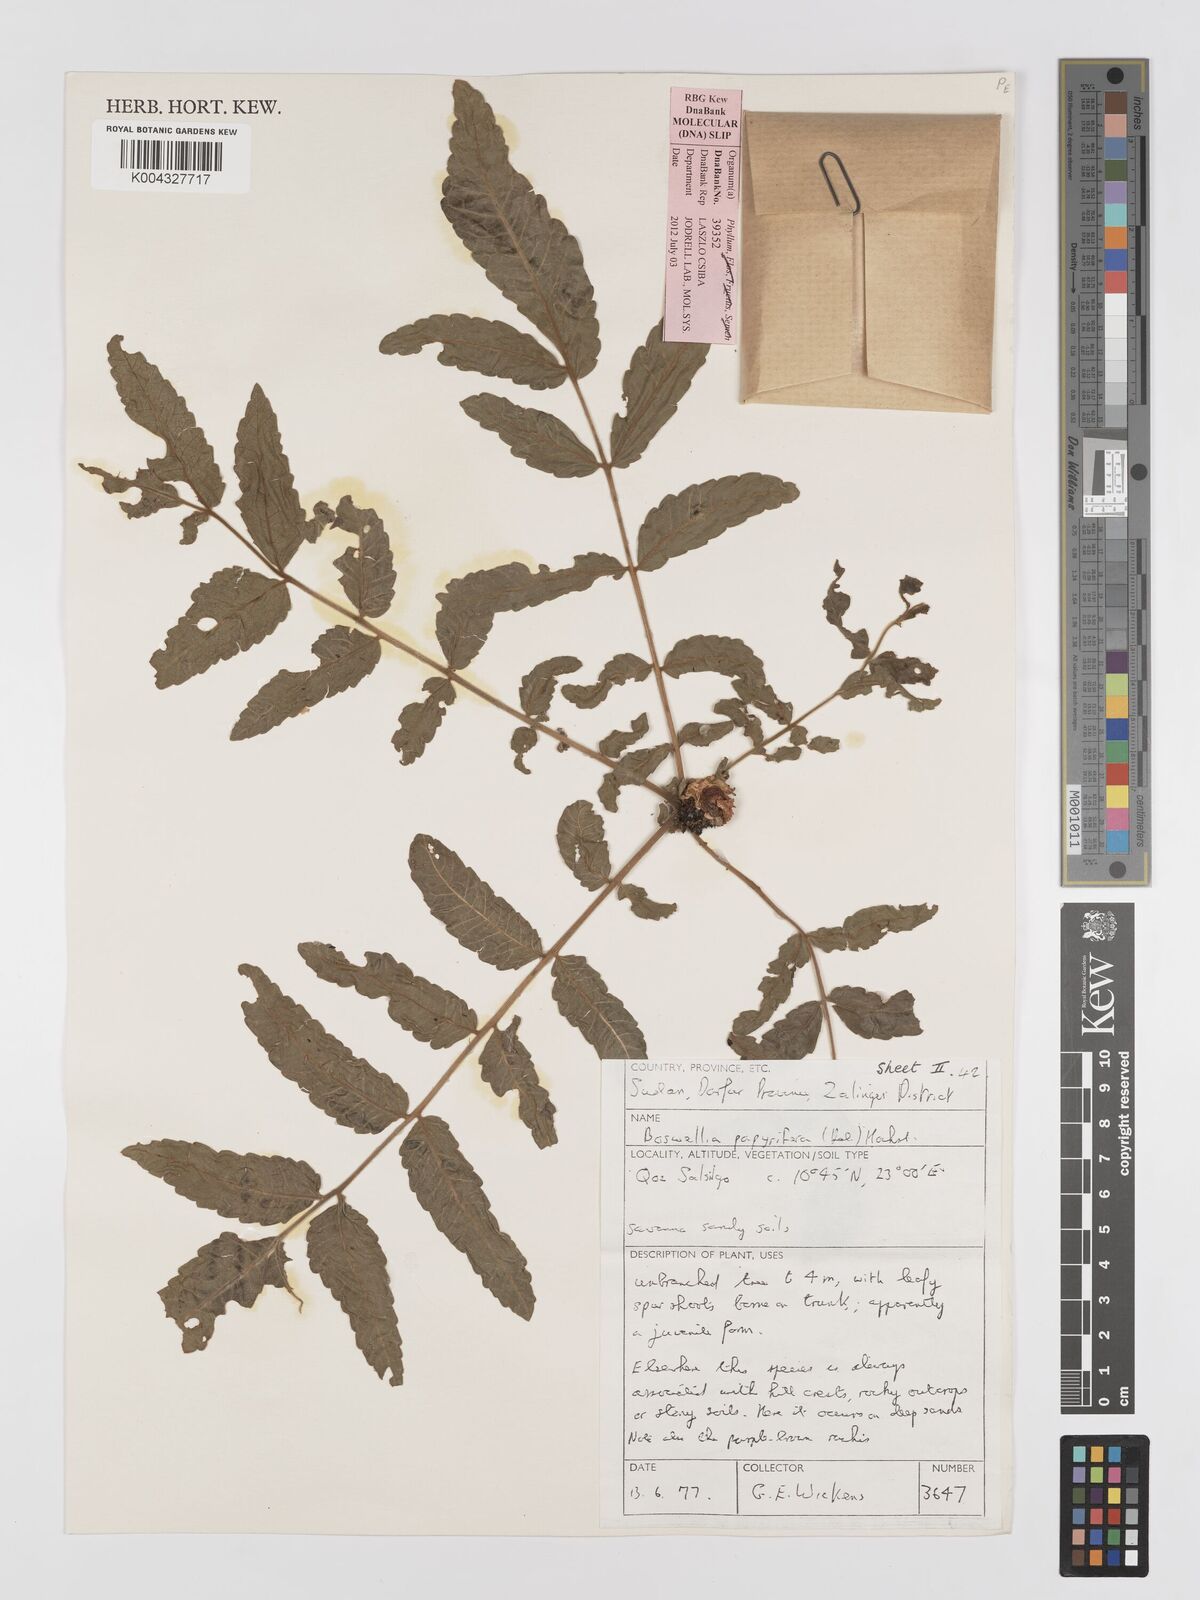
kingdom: Plantae
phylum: Tracheophyta
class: Magnoliopsida
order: Sapindales
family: Burseraceae
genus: Boswellia
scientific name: Boswellia papyrifera
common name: Sudanese frankincense
